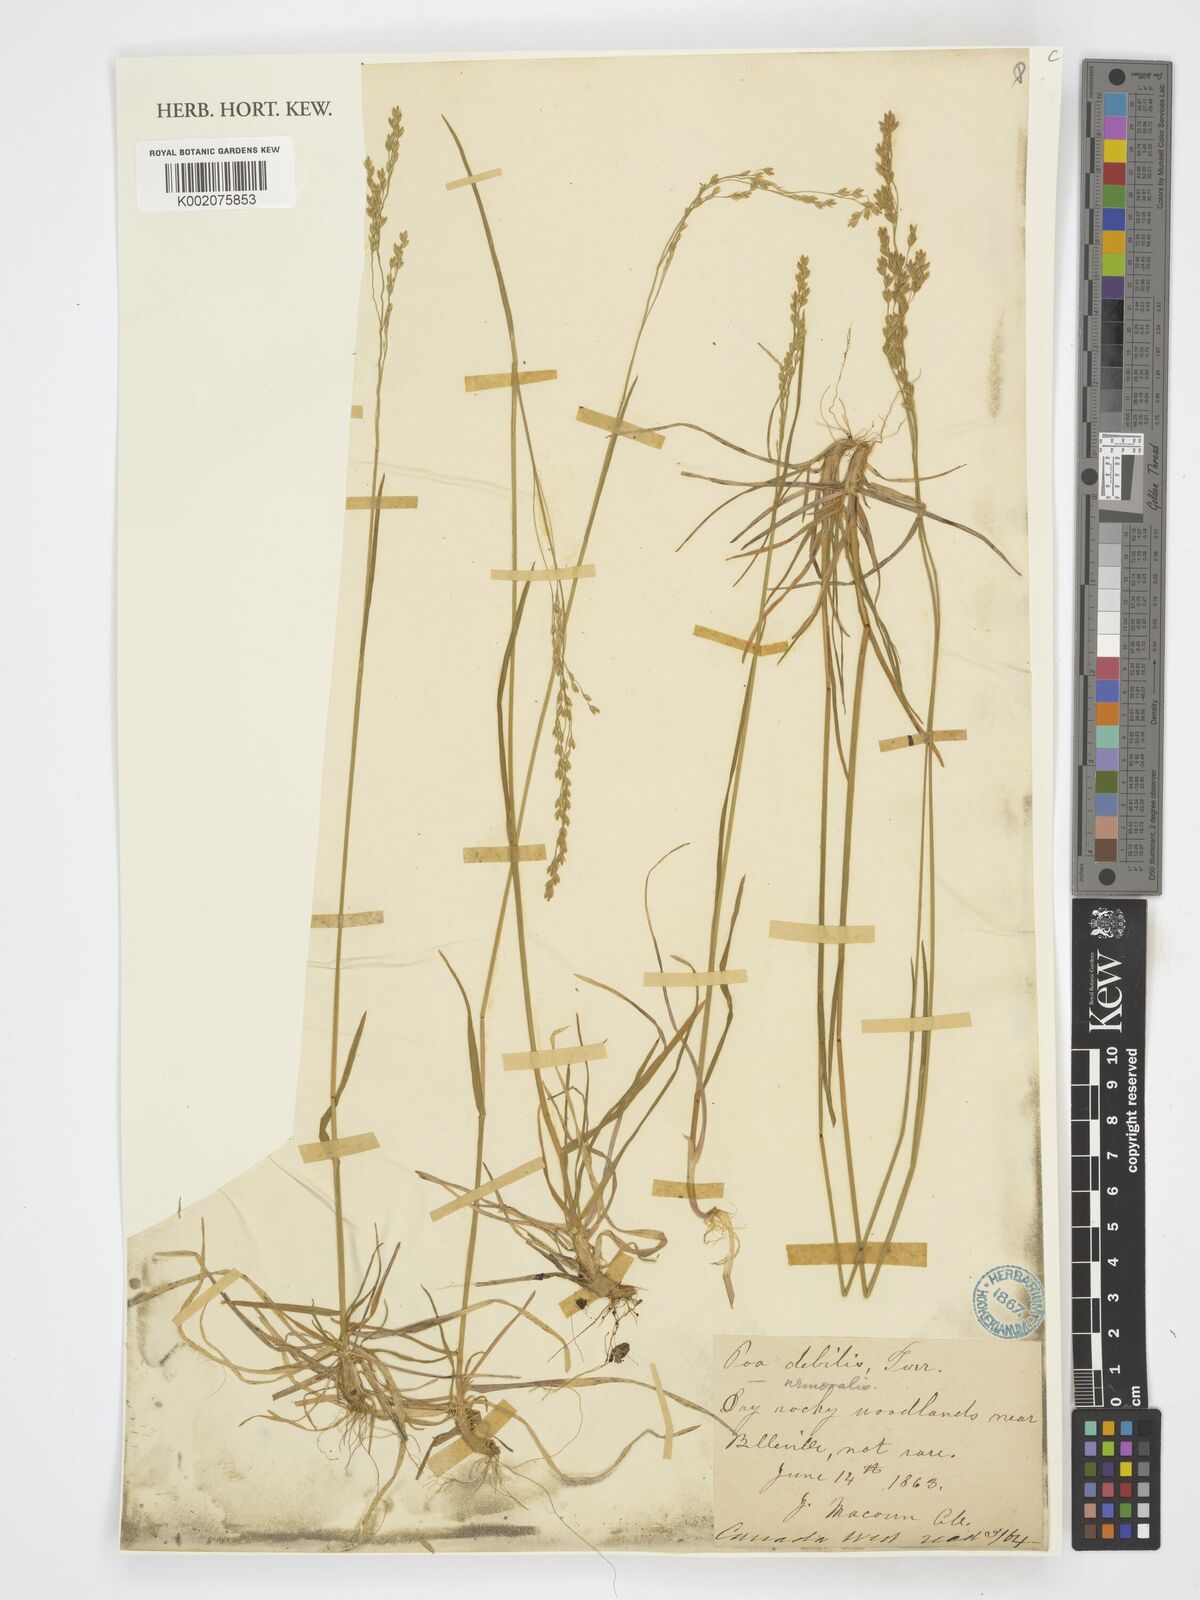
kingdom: Plantae
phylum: Tracheophyta
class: Liliopsida
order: Poales
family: Poaceae
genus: Poa
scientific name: Poa saltuensis
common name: Bushy pasture speargrass
